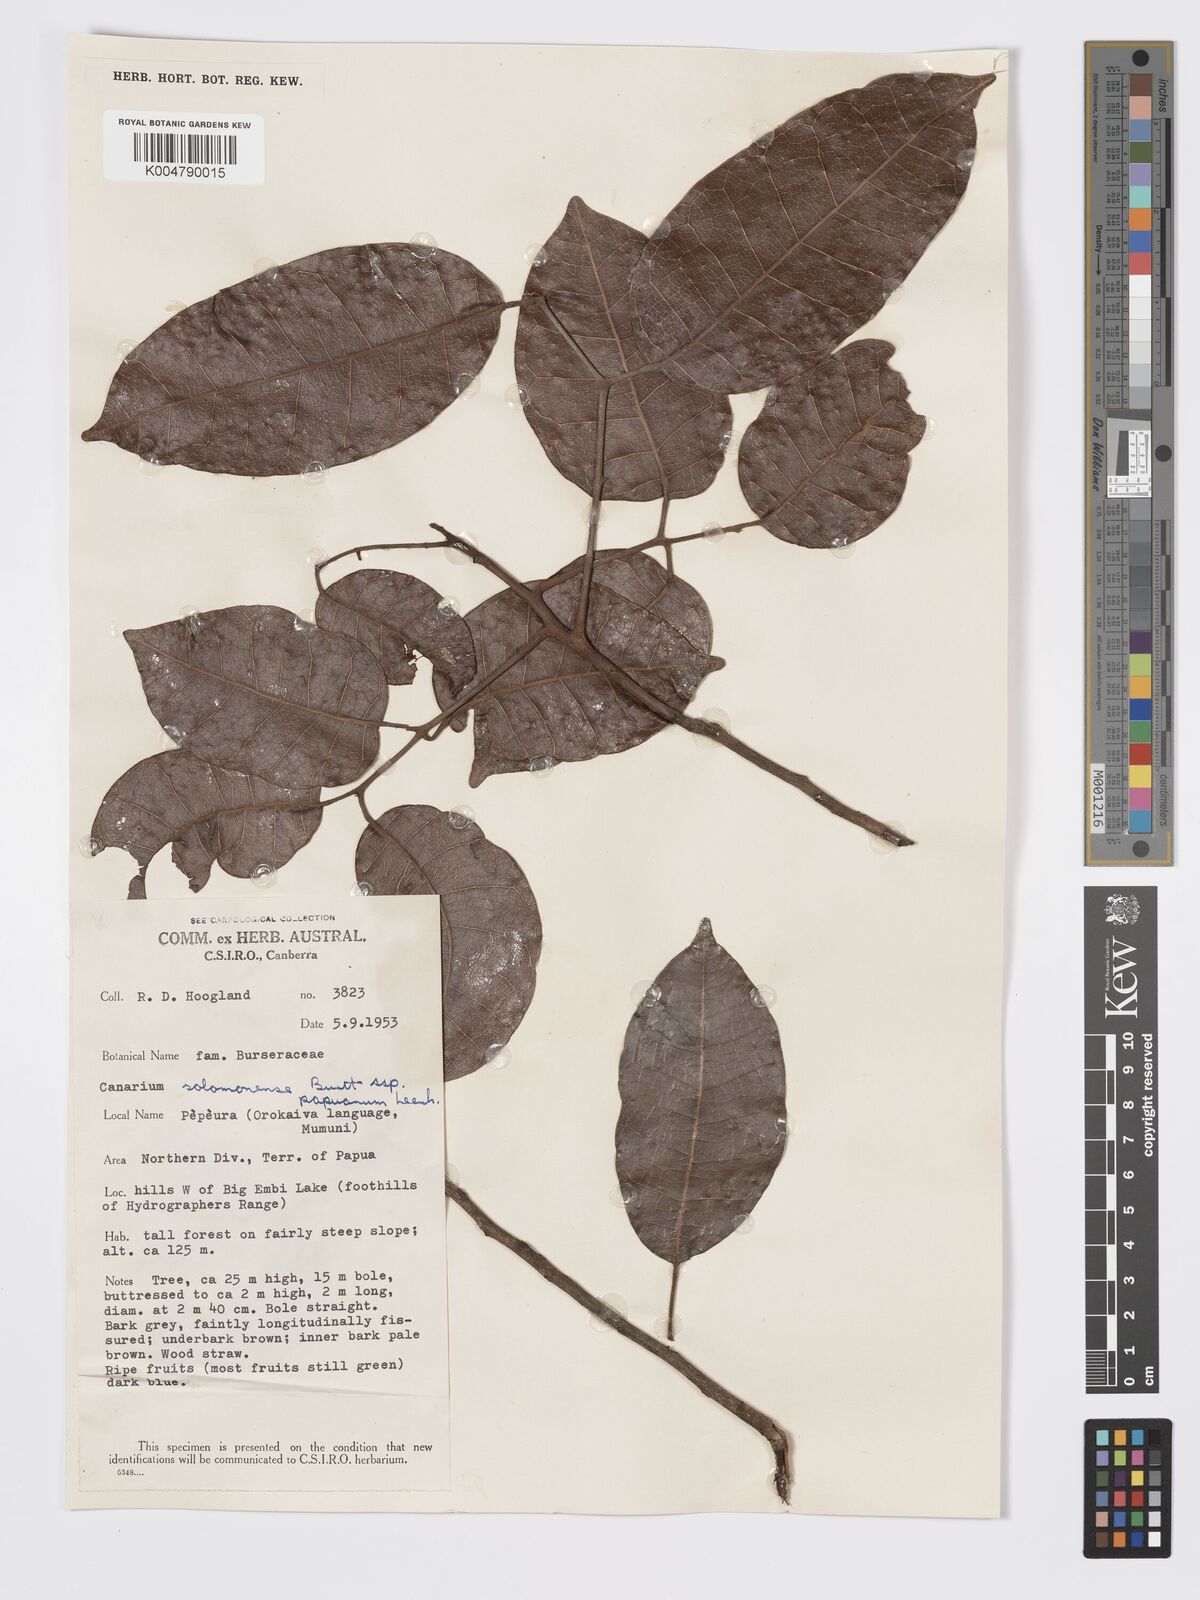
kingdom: Plantae
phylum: Tracheophyta
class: Magnoliopsida
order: Sapindales
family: Burseraceae
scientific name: Burseraceae
